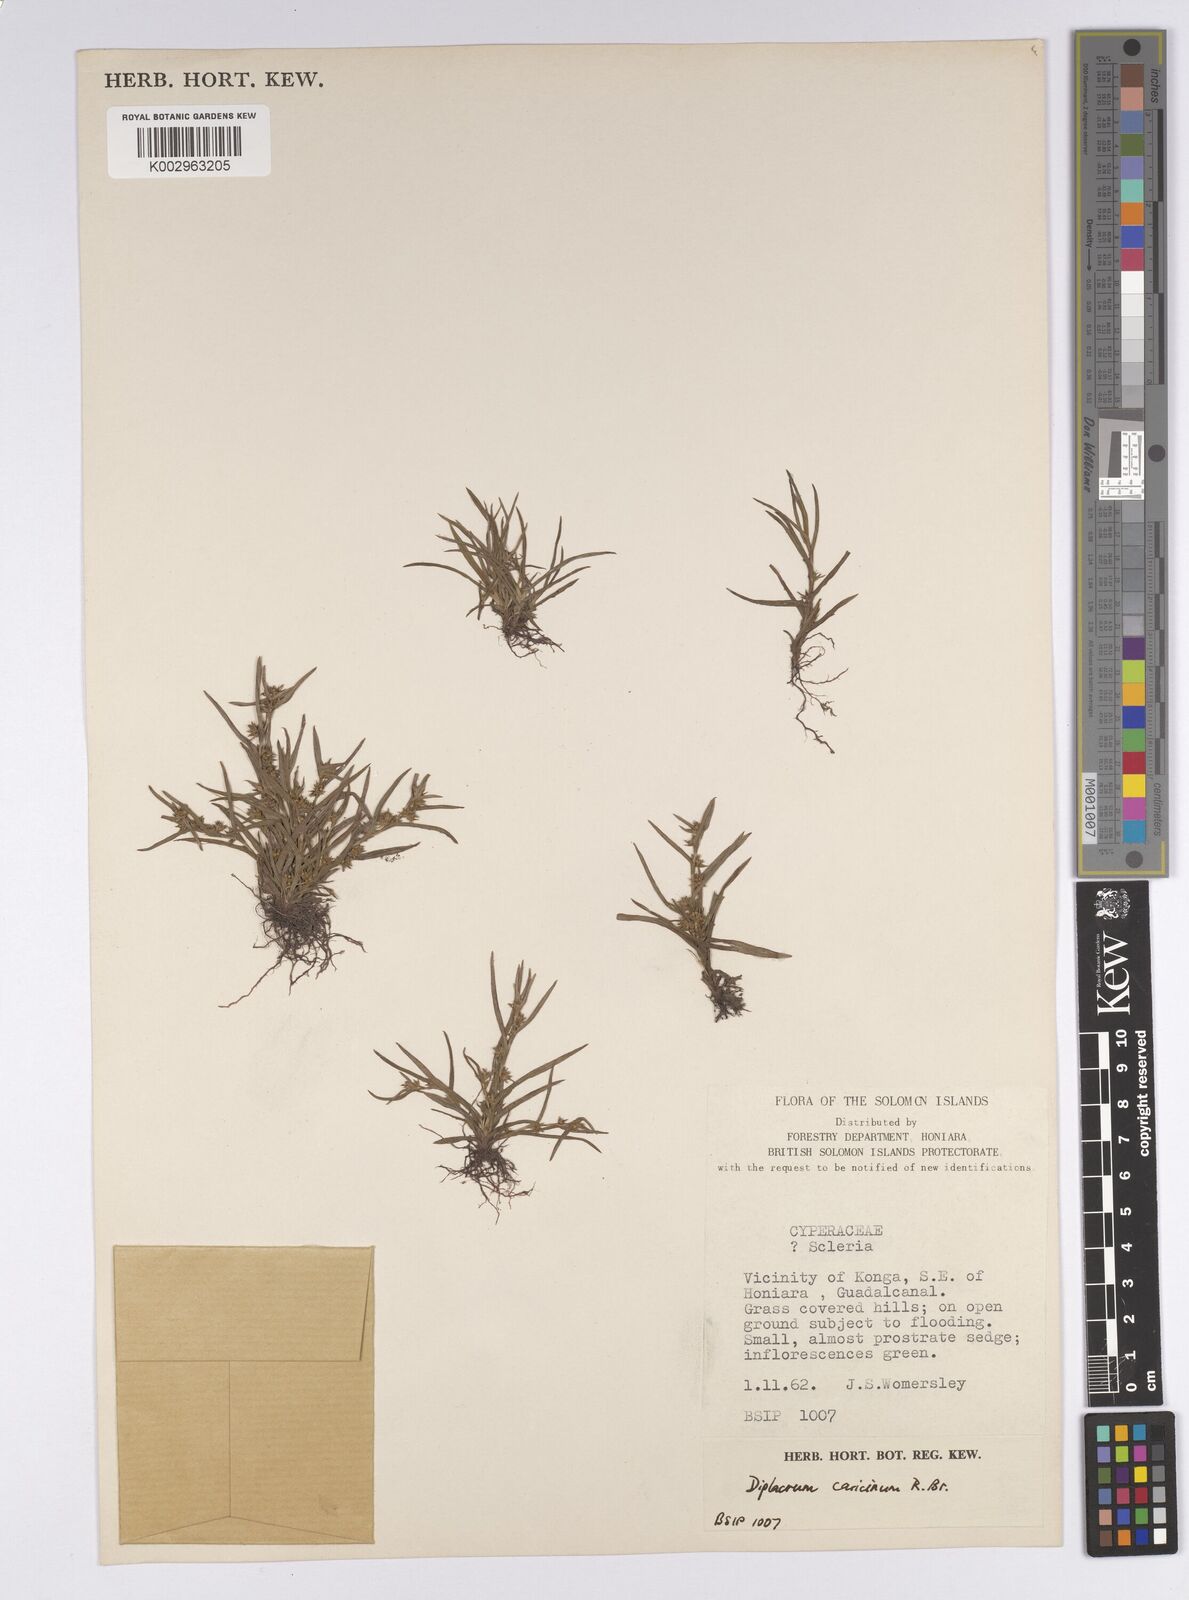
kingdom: Plantae
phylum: Tracheophyta
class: Liliopsida
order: Poales
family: Cyperaceae
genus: Diplacrum
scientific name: Diplacrum caricinum
